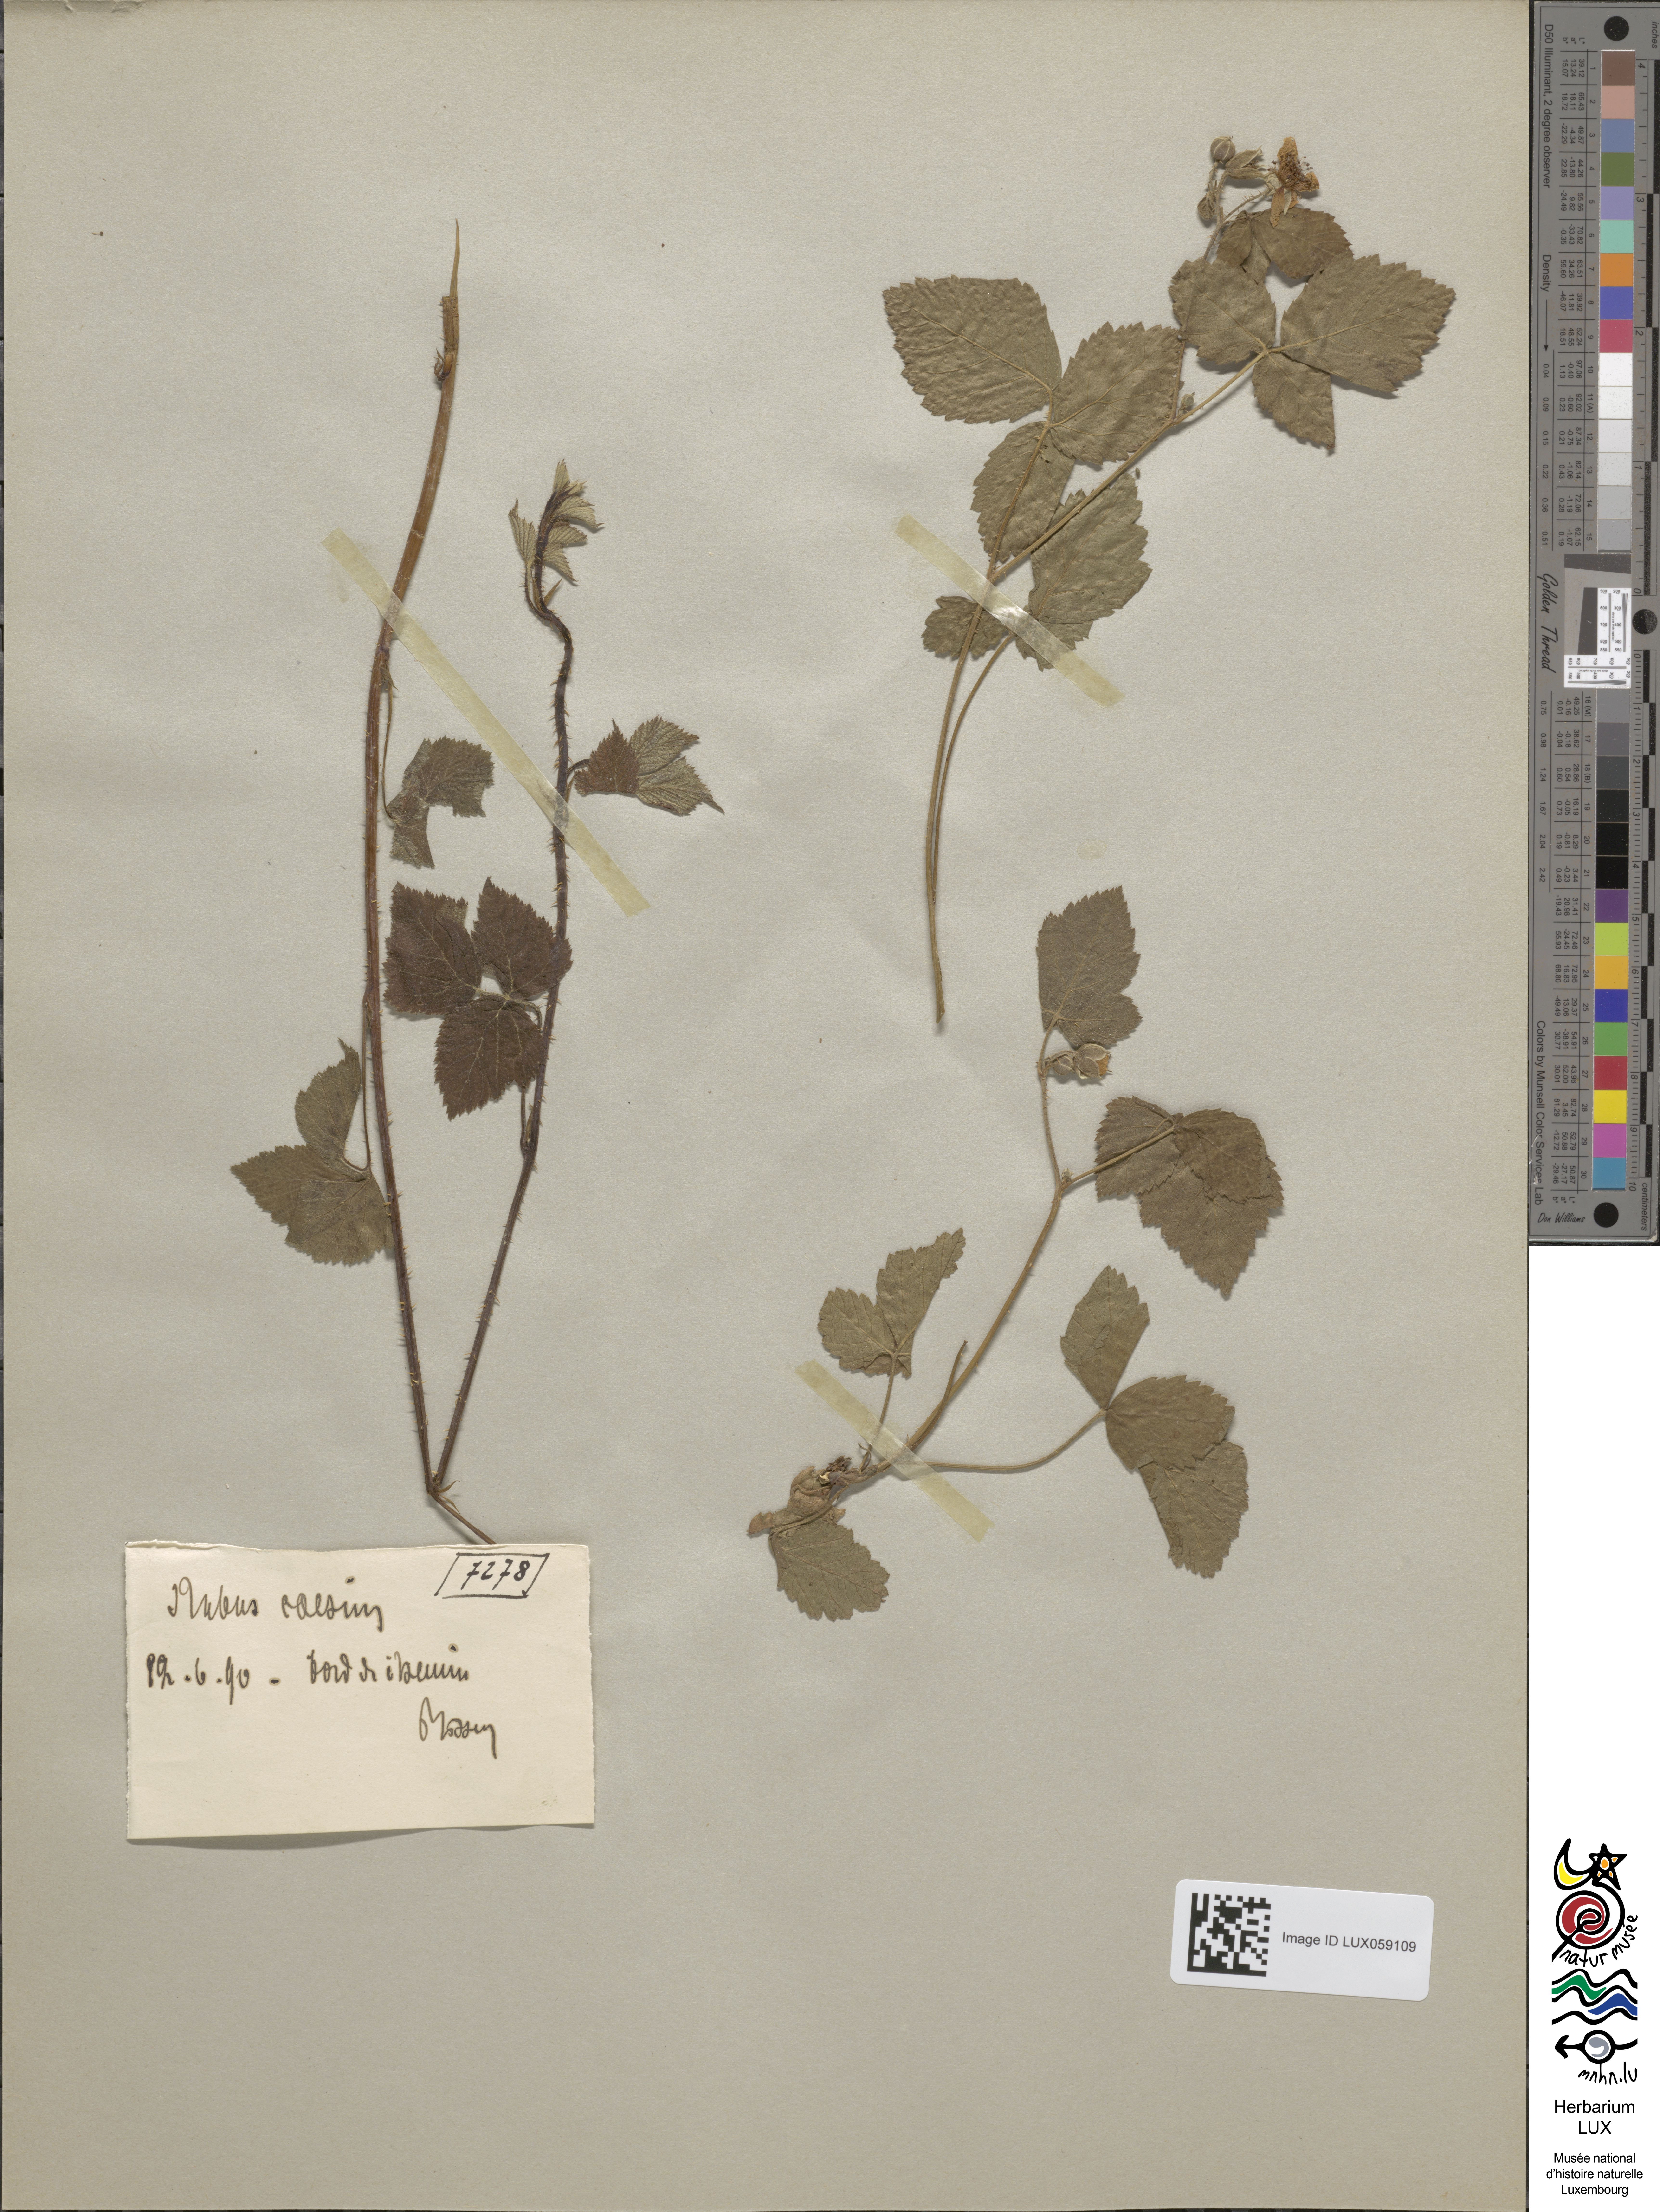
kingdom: Plantae
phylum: Tracheophyta
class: Magnoliopsida
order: Rosales
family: Rosaceae
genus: Rubus
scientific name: Rubus caesius
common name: Dewberry
